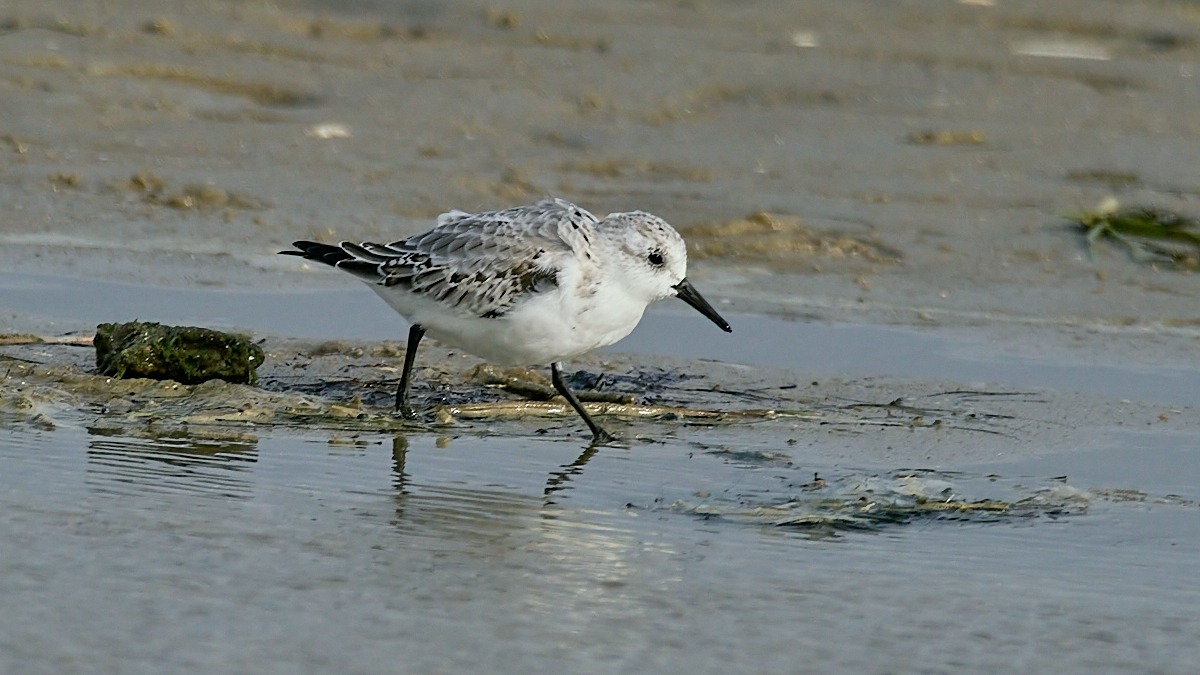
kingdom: Animalia
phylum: Chordata
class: Aves
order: Charadriiformes
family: Scolopacidae
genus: Calidris
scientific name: Calidris alba
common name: Sandløber
